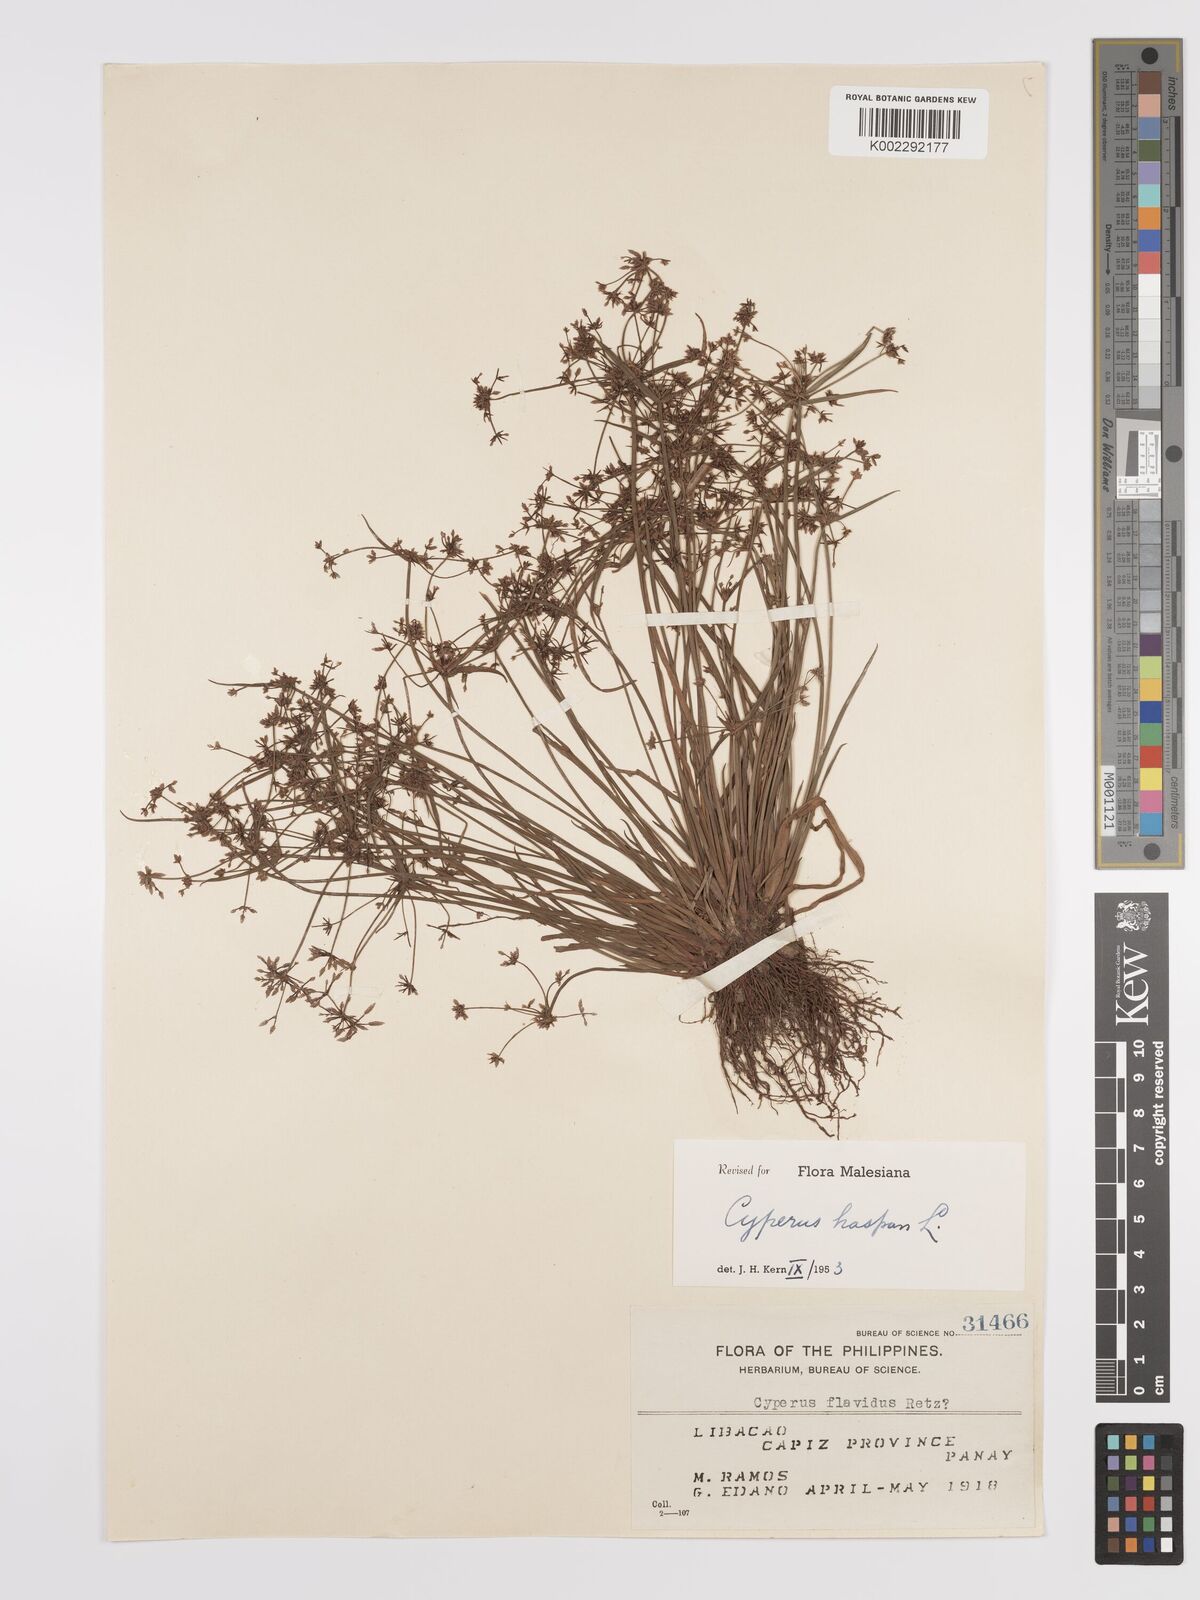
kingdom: Plantae
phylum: Tracheophyta
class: Liliopsida
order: Poales
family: Cyperaceae
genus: Cyperus
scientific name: Cyperus haspan
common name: Haspan flatsedge
